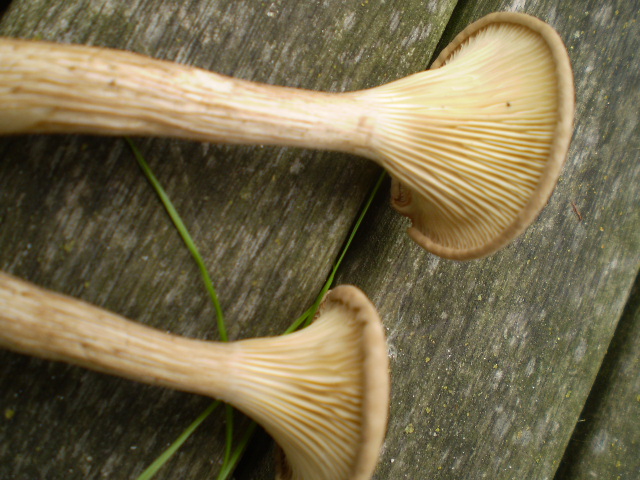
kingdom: Fungi
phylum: Basidiomycota
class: Agaricomycetes
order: Agaricales
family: Hygrophoraceae
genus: Ampulloclitocybe
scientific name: Ampulloclitocybe clavipes
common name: køllefod
